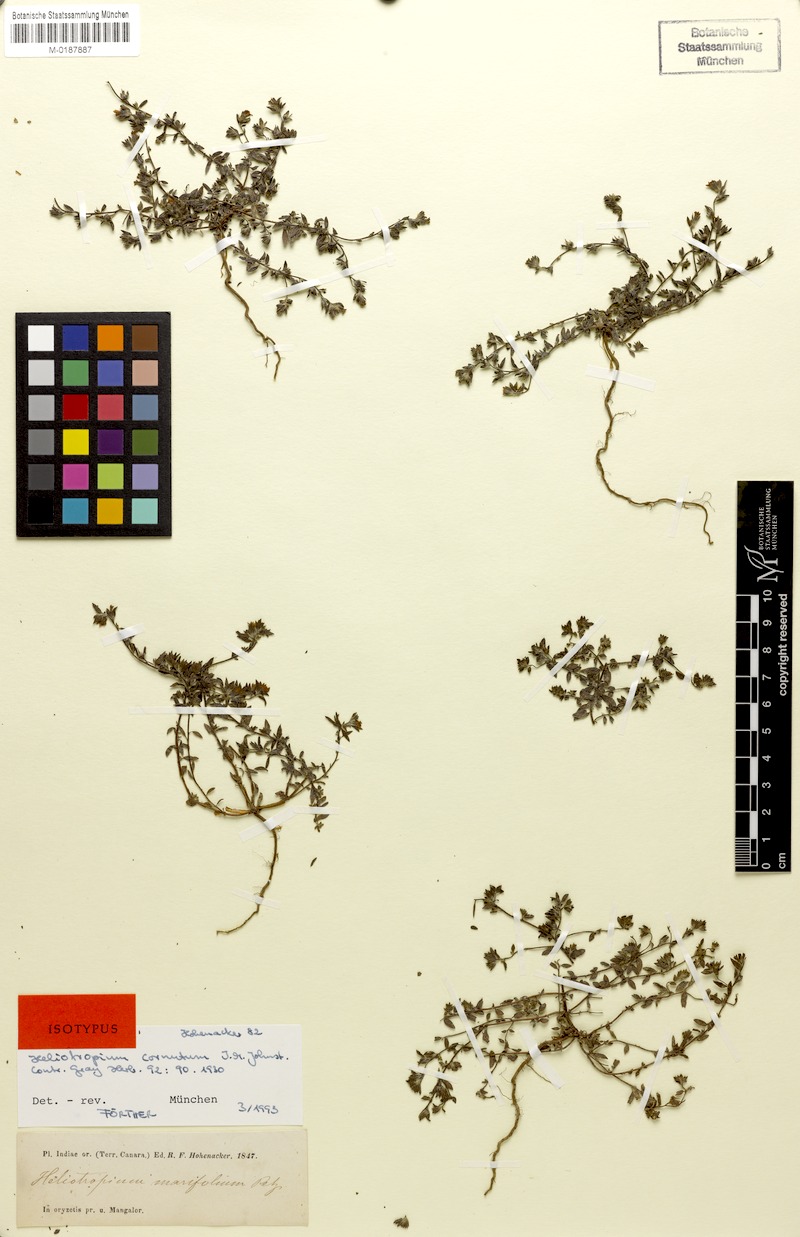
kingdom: Plantae
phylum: Tracheophyta
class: Magnoliopsida
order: Boraginales
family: Heliotropiaceae
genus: Euploca
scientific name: Euploca cornuta
